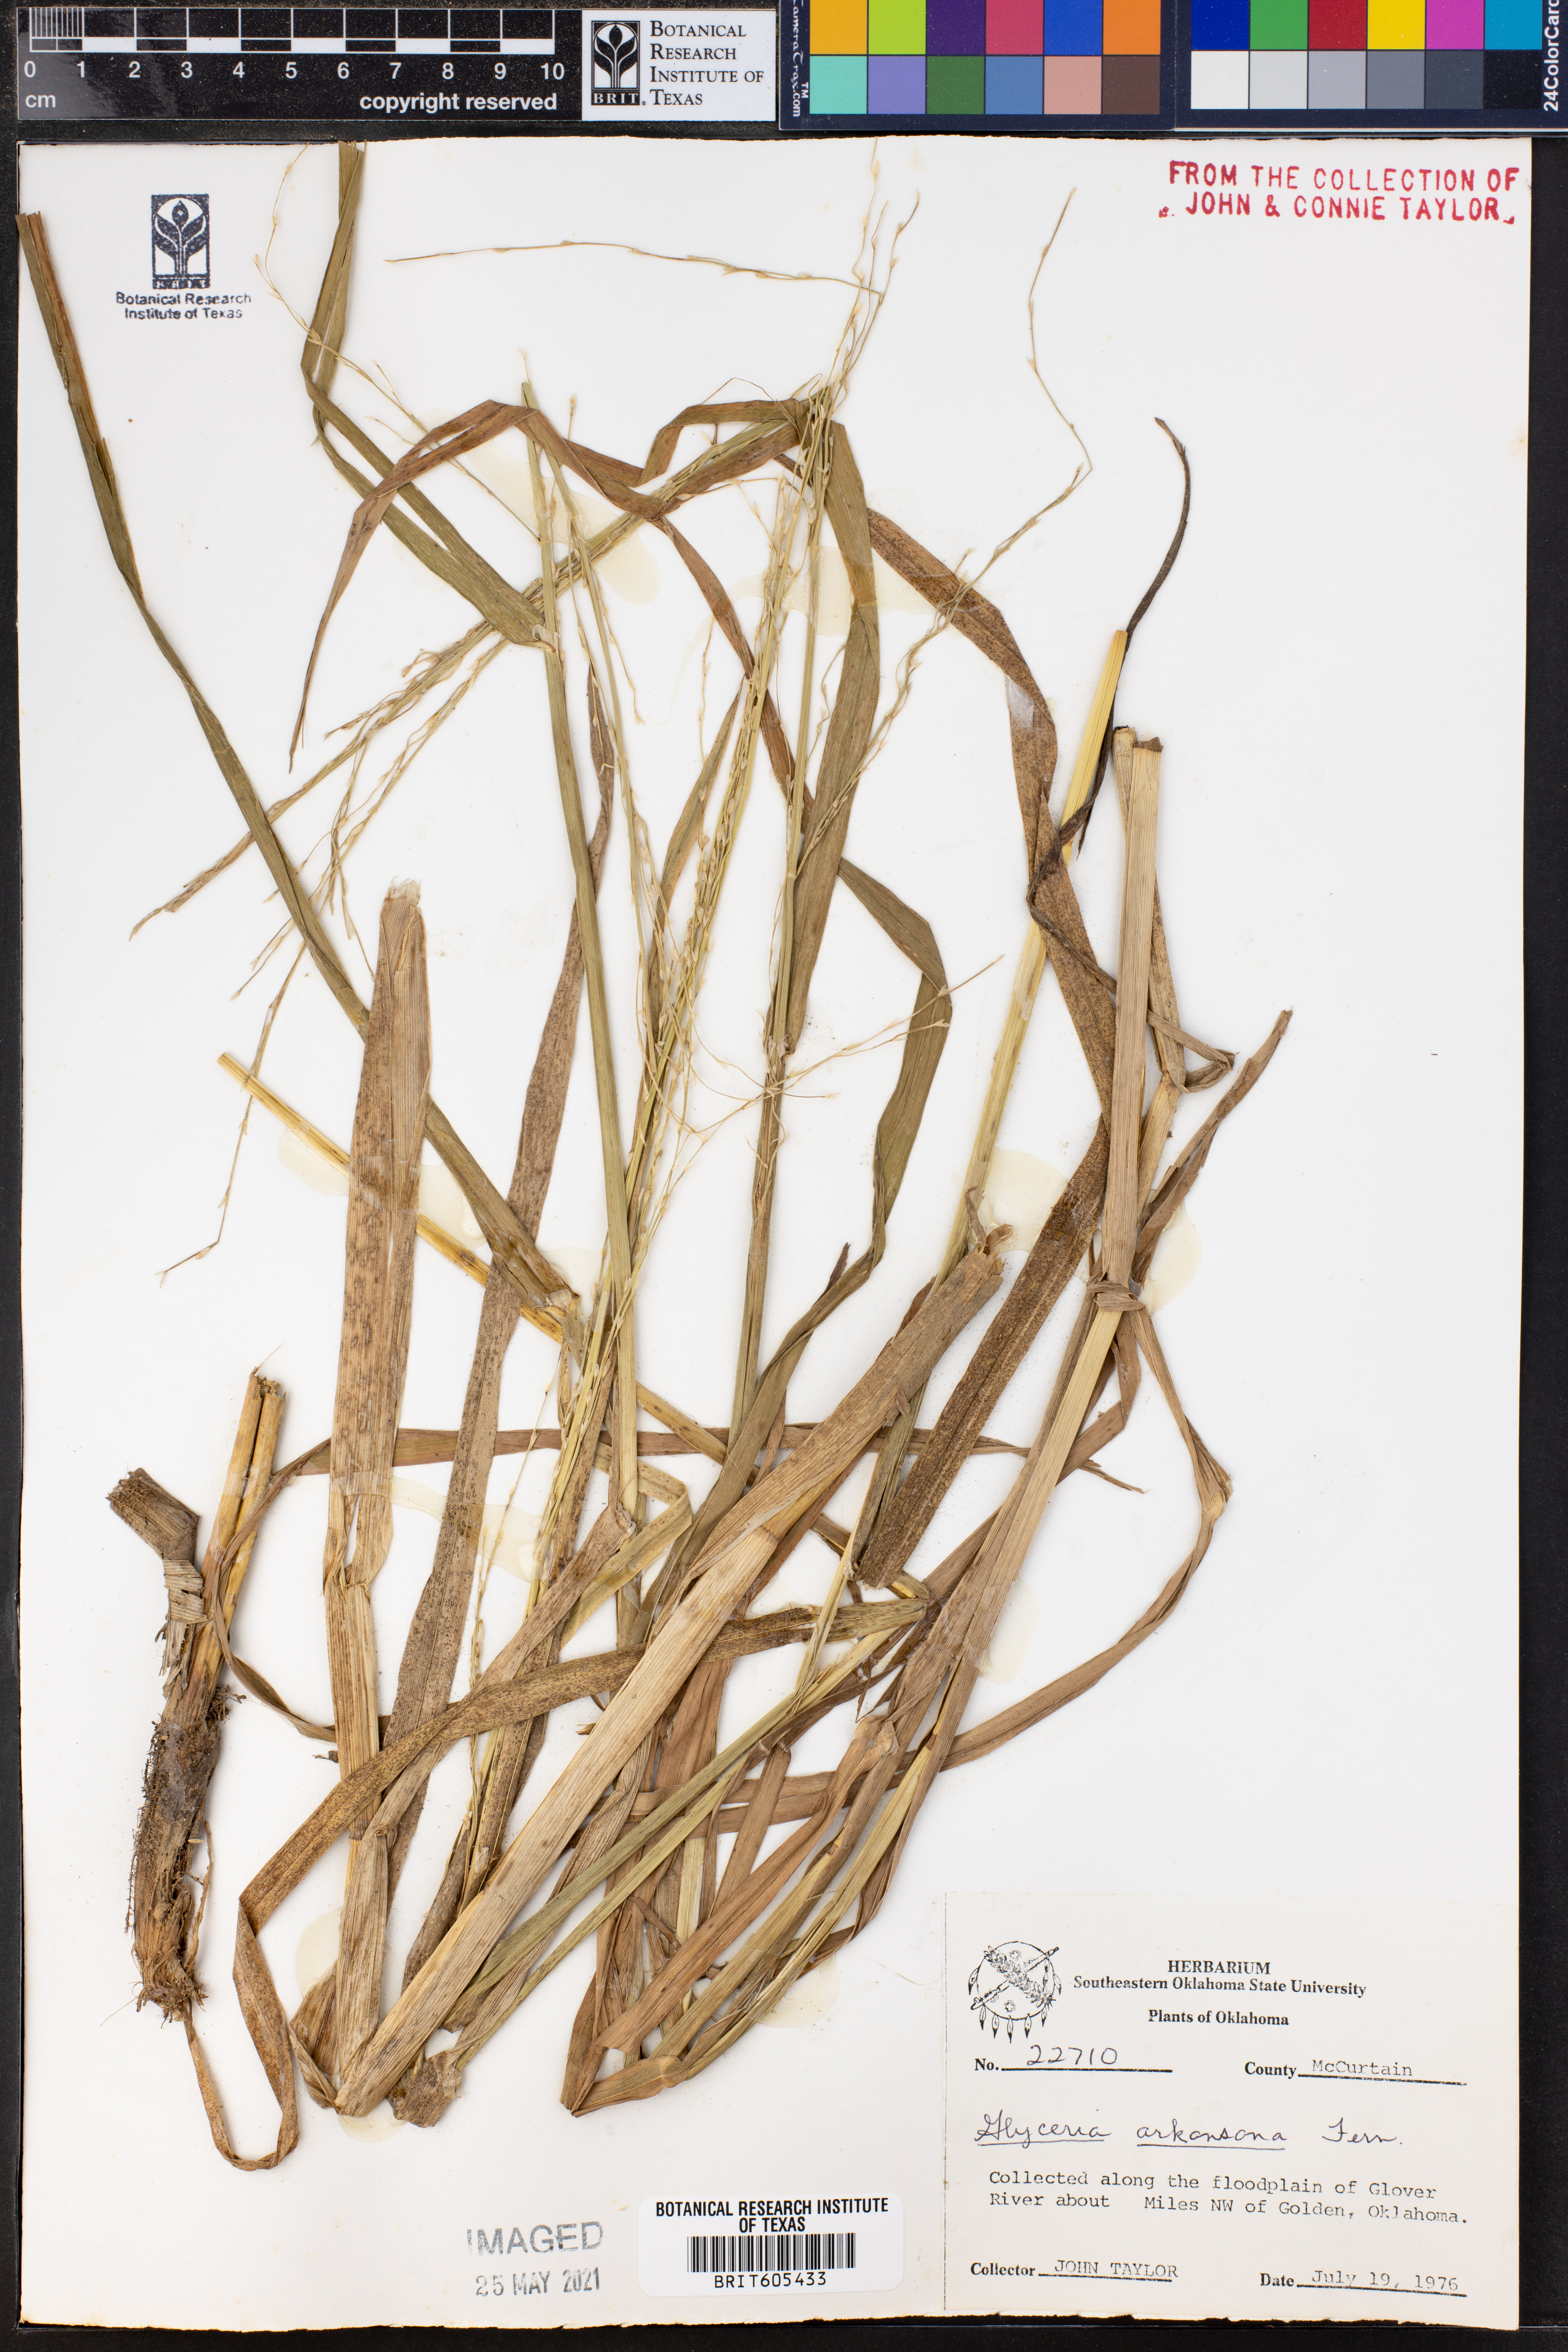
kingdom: Plantae
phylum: Tracheophyta
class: Liliopsida
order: Poales
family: Poaceae
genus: Glyceria
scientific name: Glyceria arkansana
